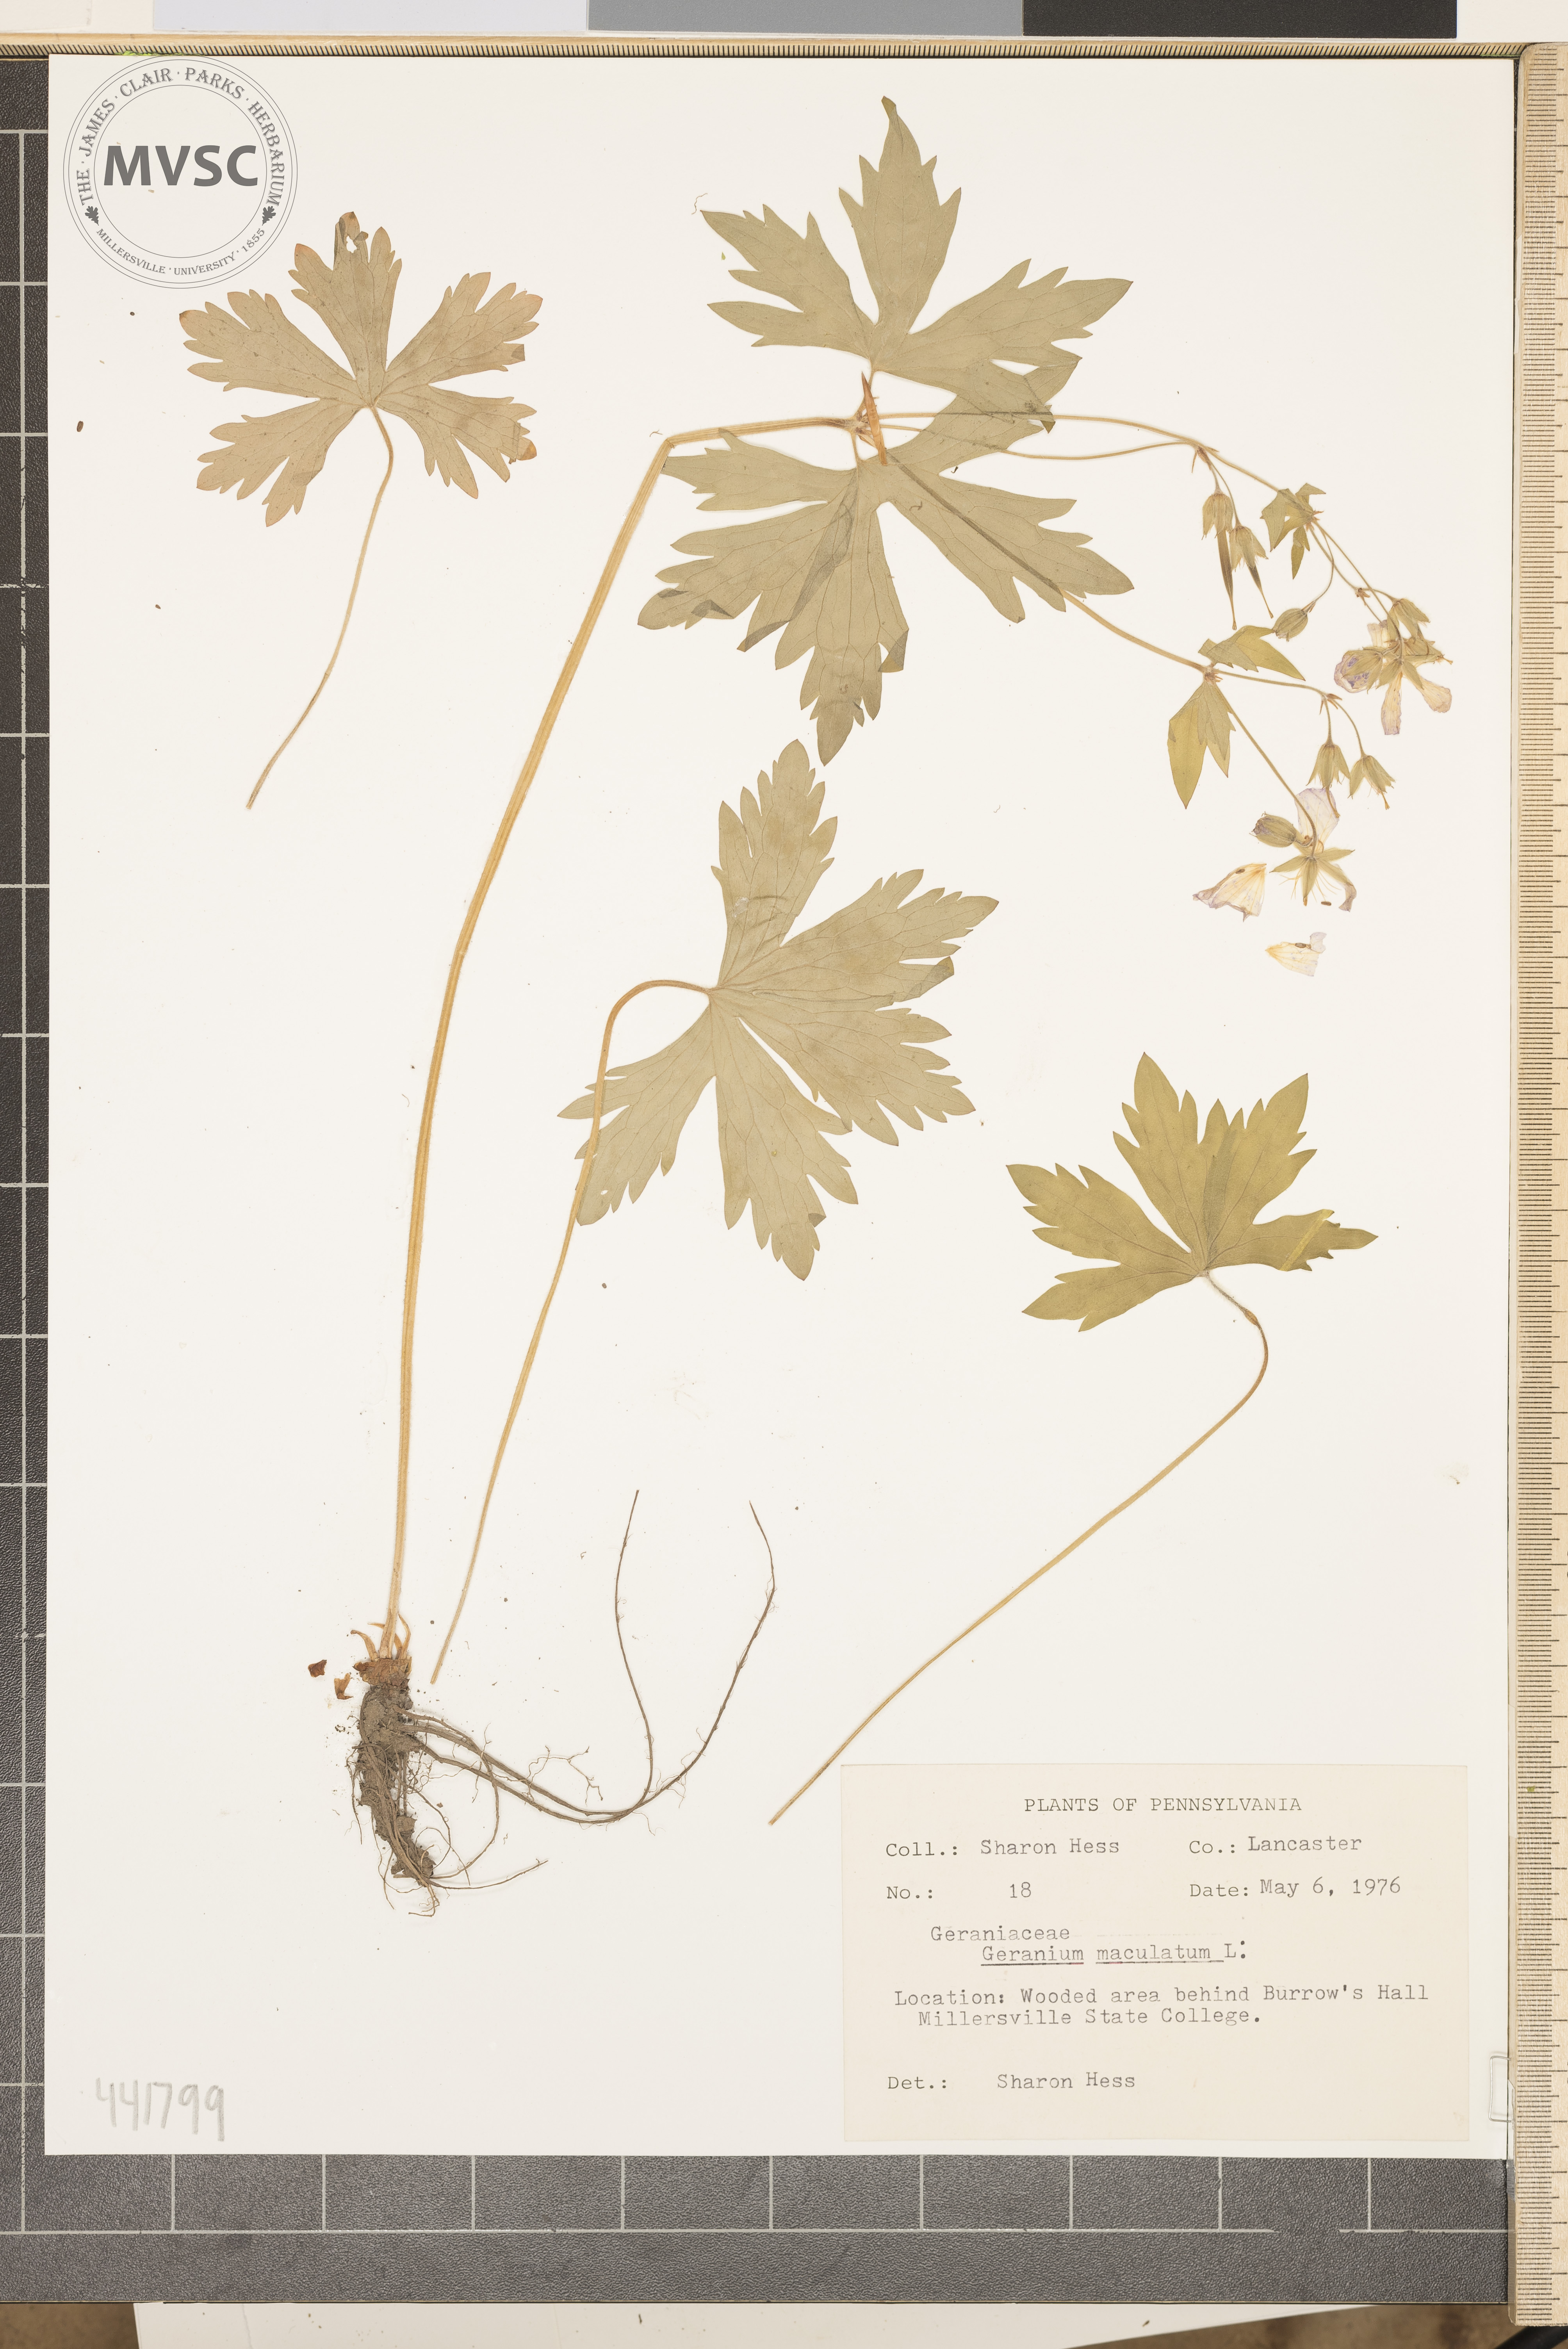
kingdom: Plantae
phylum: Tracheophyta
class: Magnoliopsida
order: Geraniales
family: Geraniaceae
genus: Geranium
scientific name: Geranium maculatum
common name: Geranium
